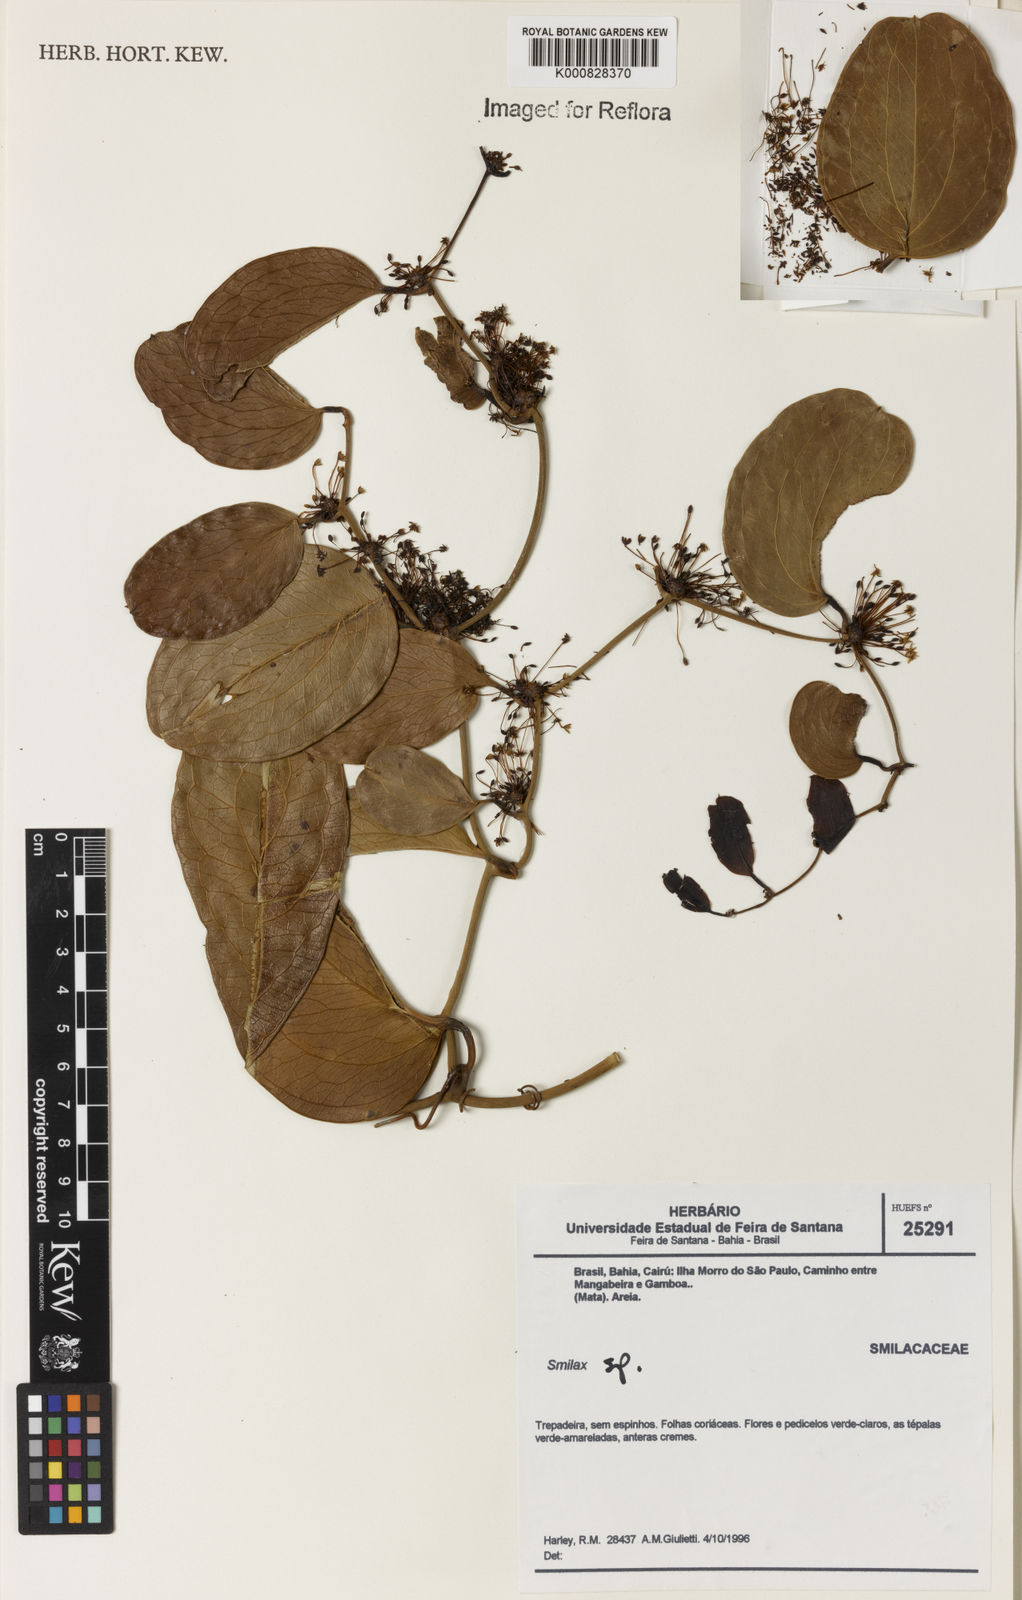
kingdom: Plantae
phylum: Tracheophyta
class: Liliopsida
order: Liliales
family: Smilacaceae
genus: Smilax
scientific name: Smilax
